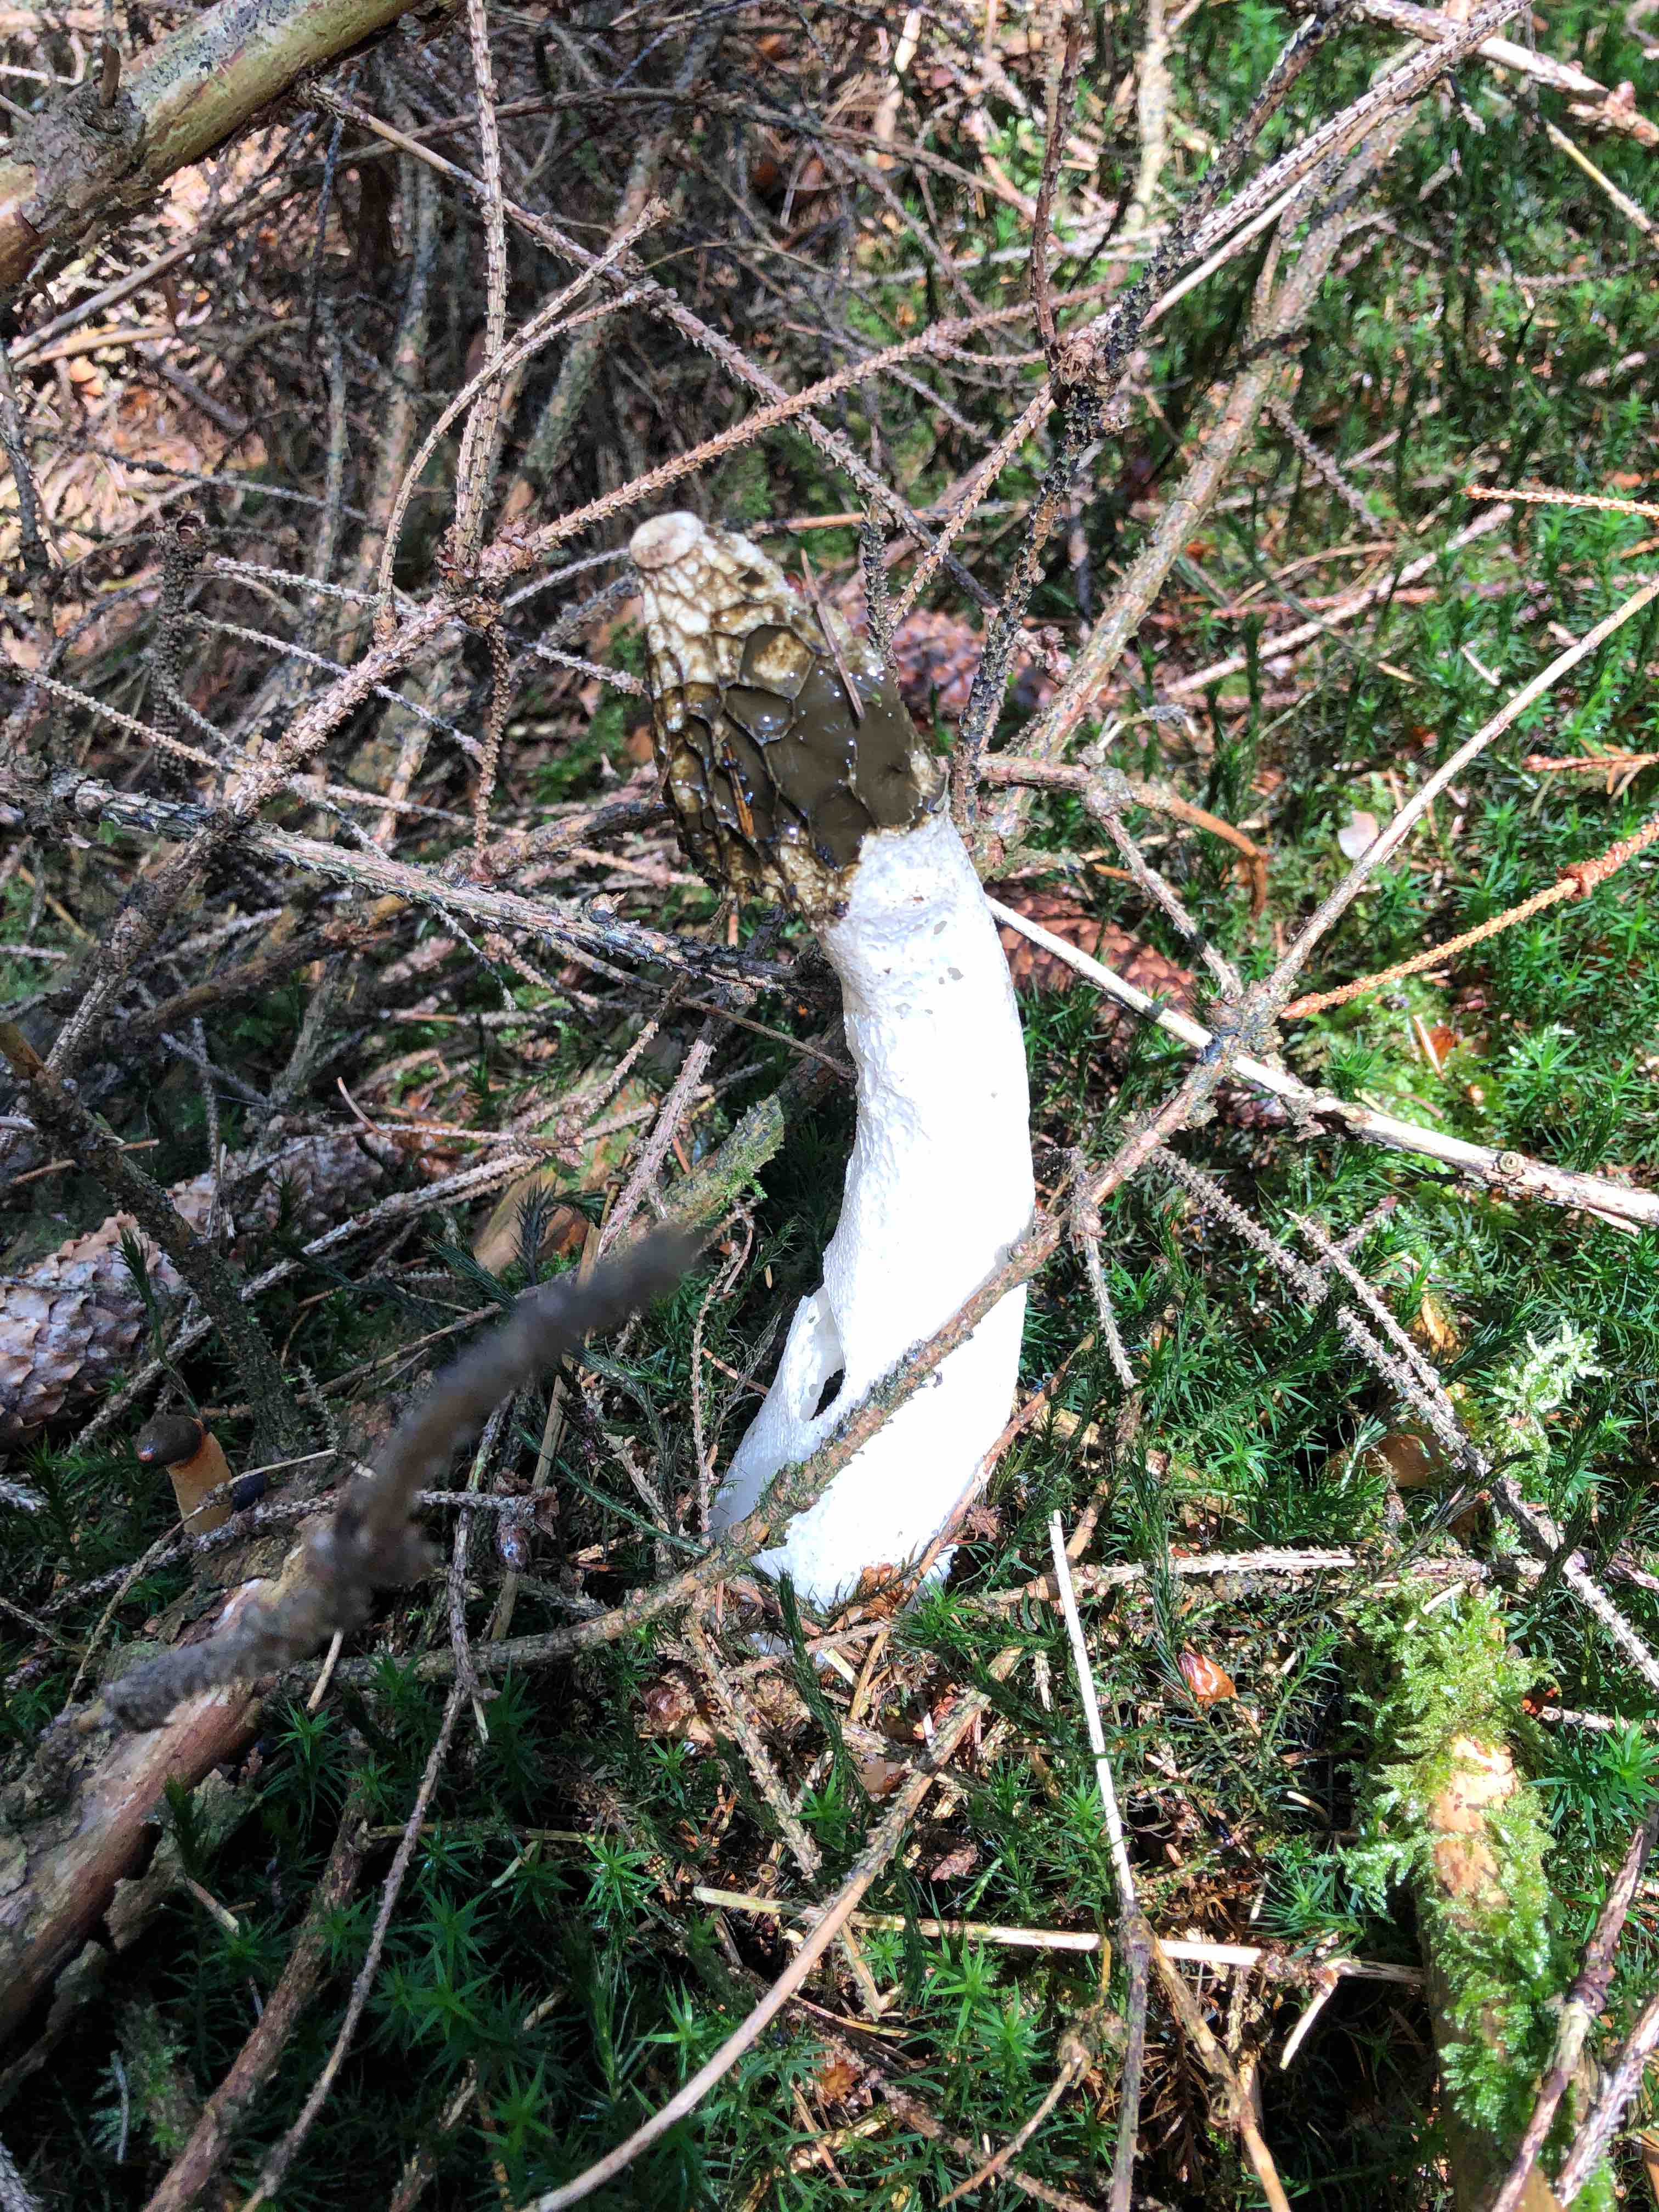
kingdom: Fungi
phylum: Basidiomycota
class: Agaricomycetes
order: Phallales
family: Phallaceae
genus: Phallus
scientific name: Phallus impudicus
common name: almindelig stinksvamp
